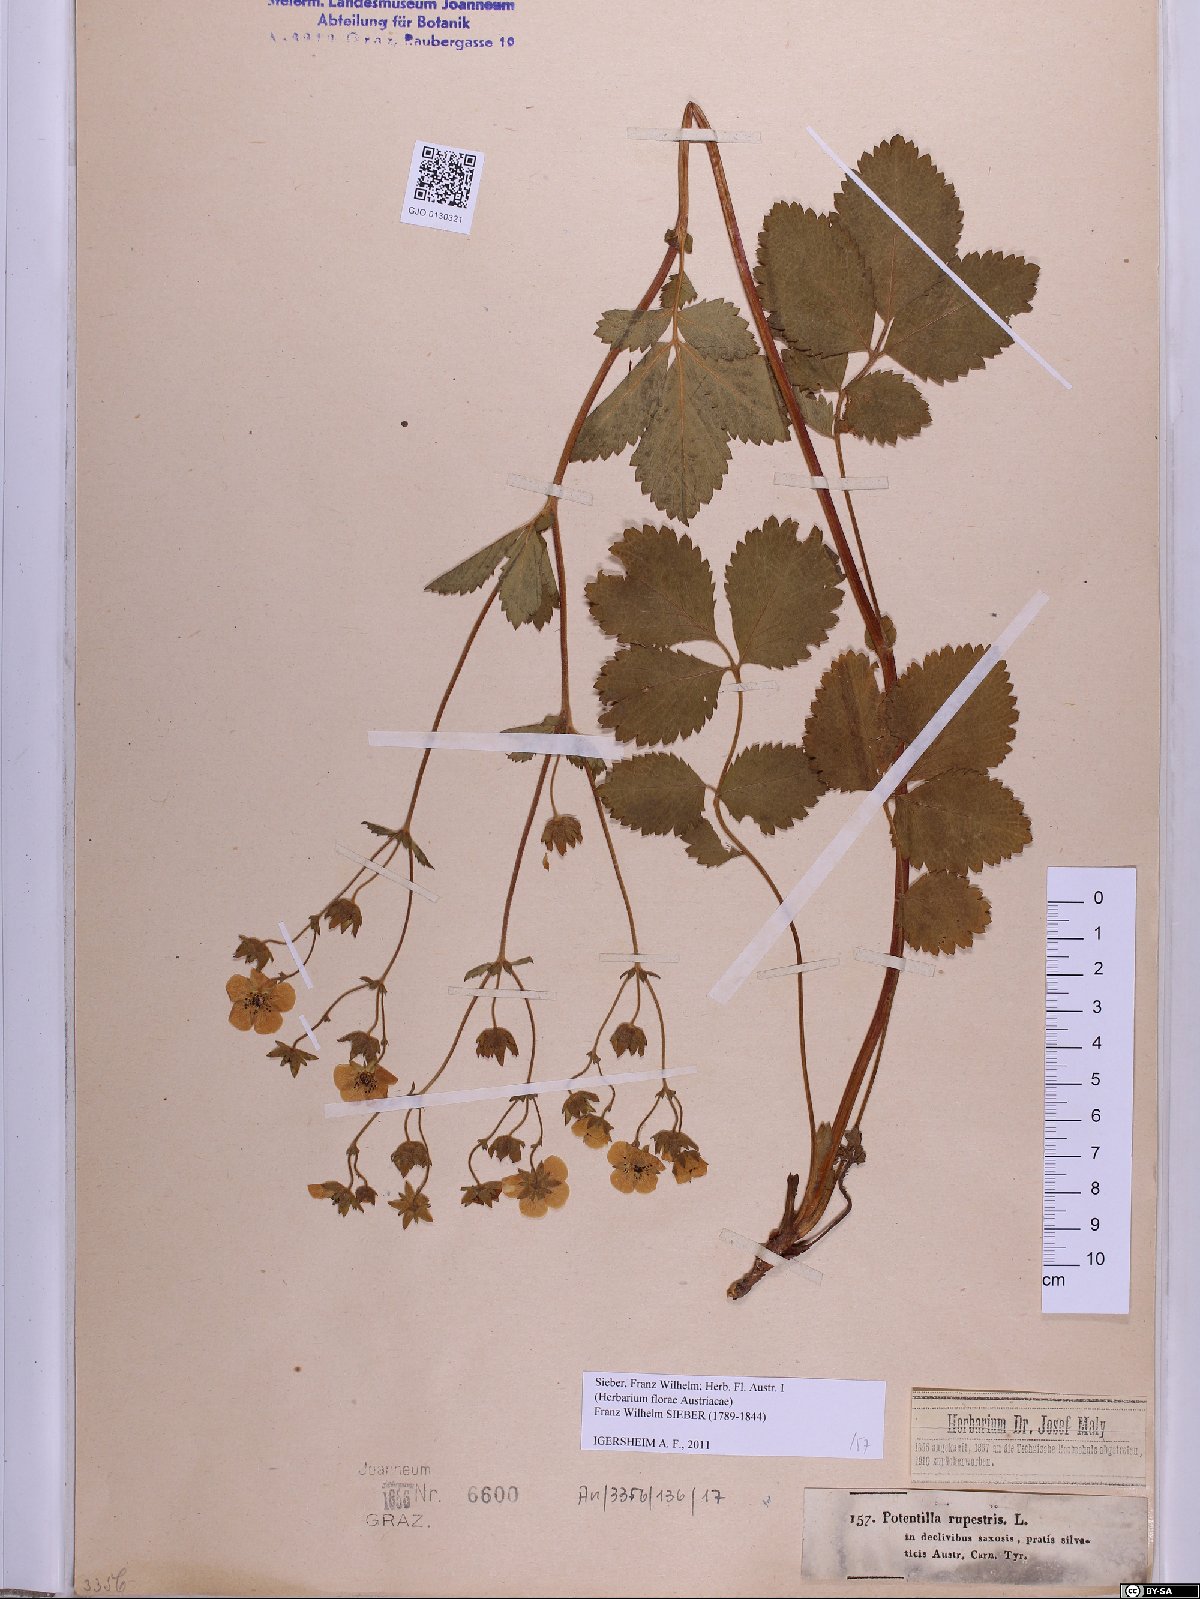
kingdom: Plantae
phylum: Tracheophyta
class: Magnoliopsida
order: Rosales
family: Rosaceae
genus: Drymocallis
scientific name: Drymocallis rupestris
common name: Rock cinquefoil
